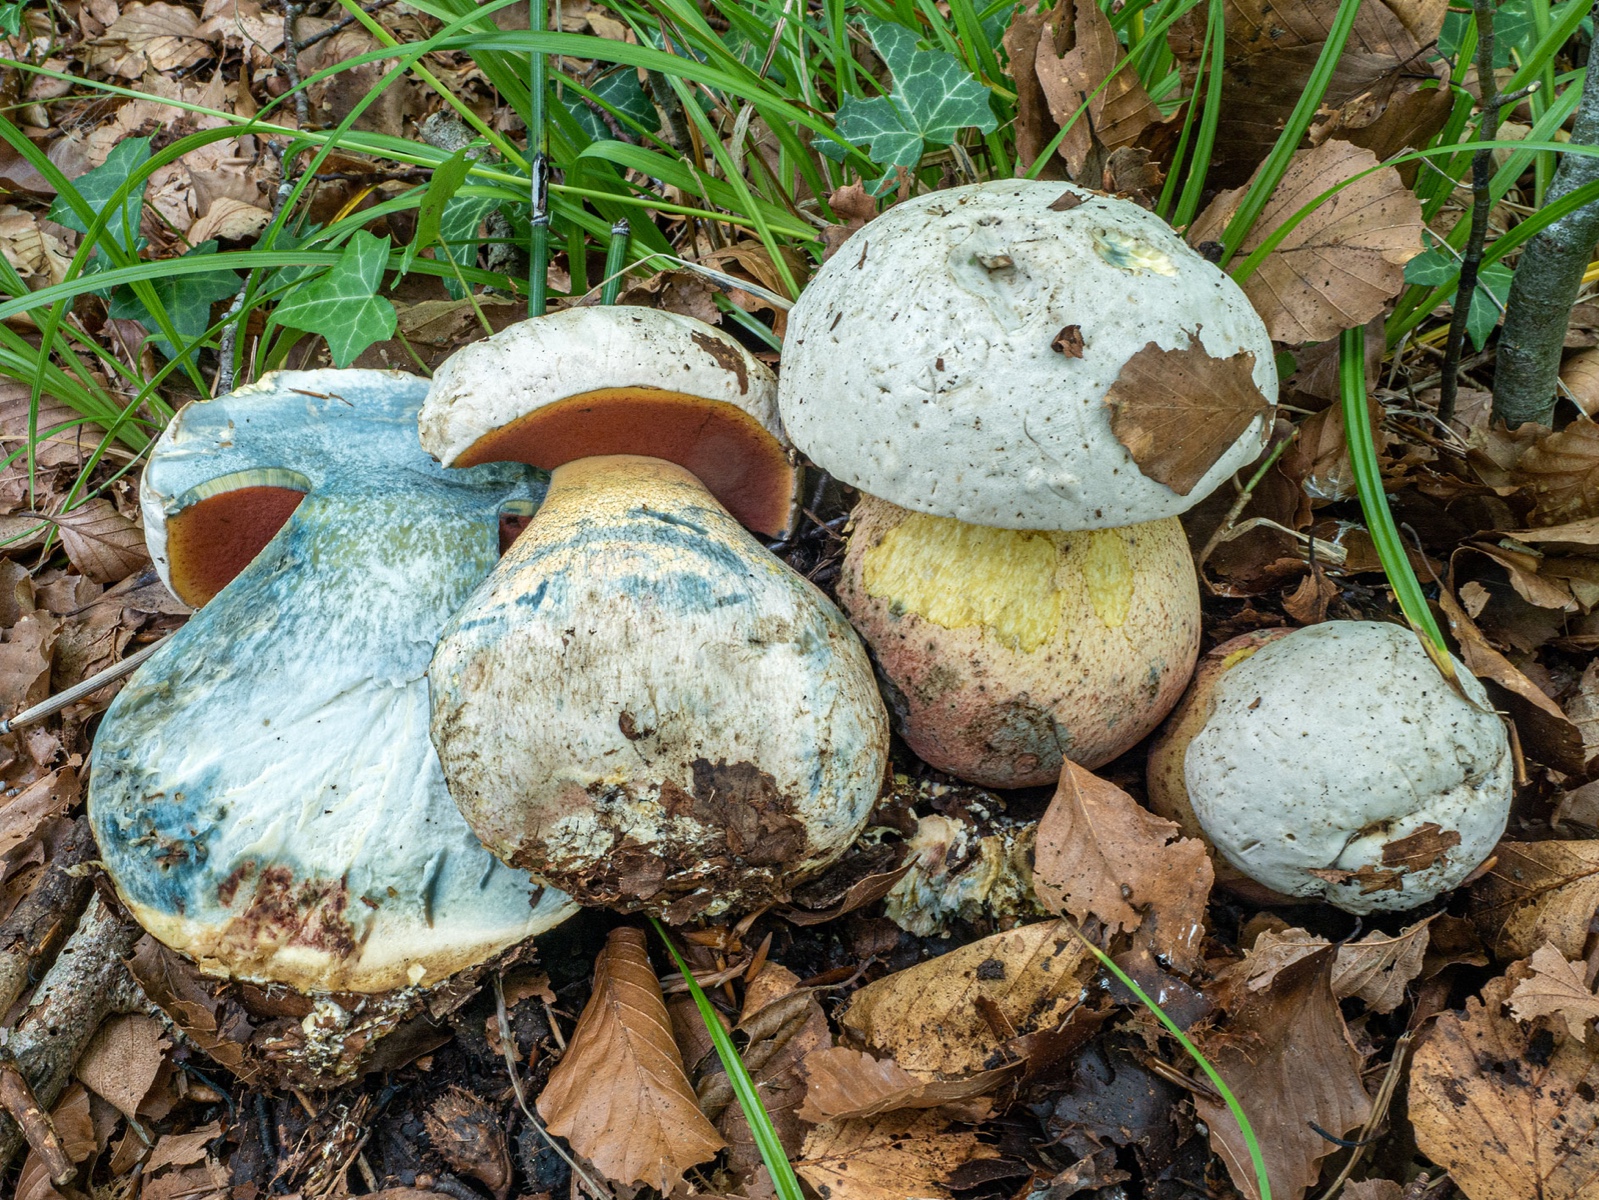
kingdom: Fungi
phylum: Basidiomycota
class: Agaricomycetes
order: Boletales
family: Boletaceae
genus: Rubroboletus
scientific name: Rubroboletus satanas
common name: Satans rørhat
